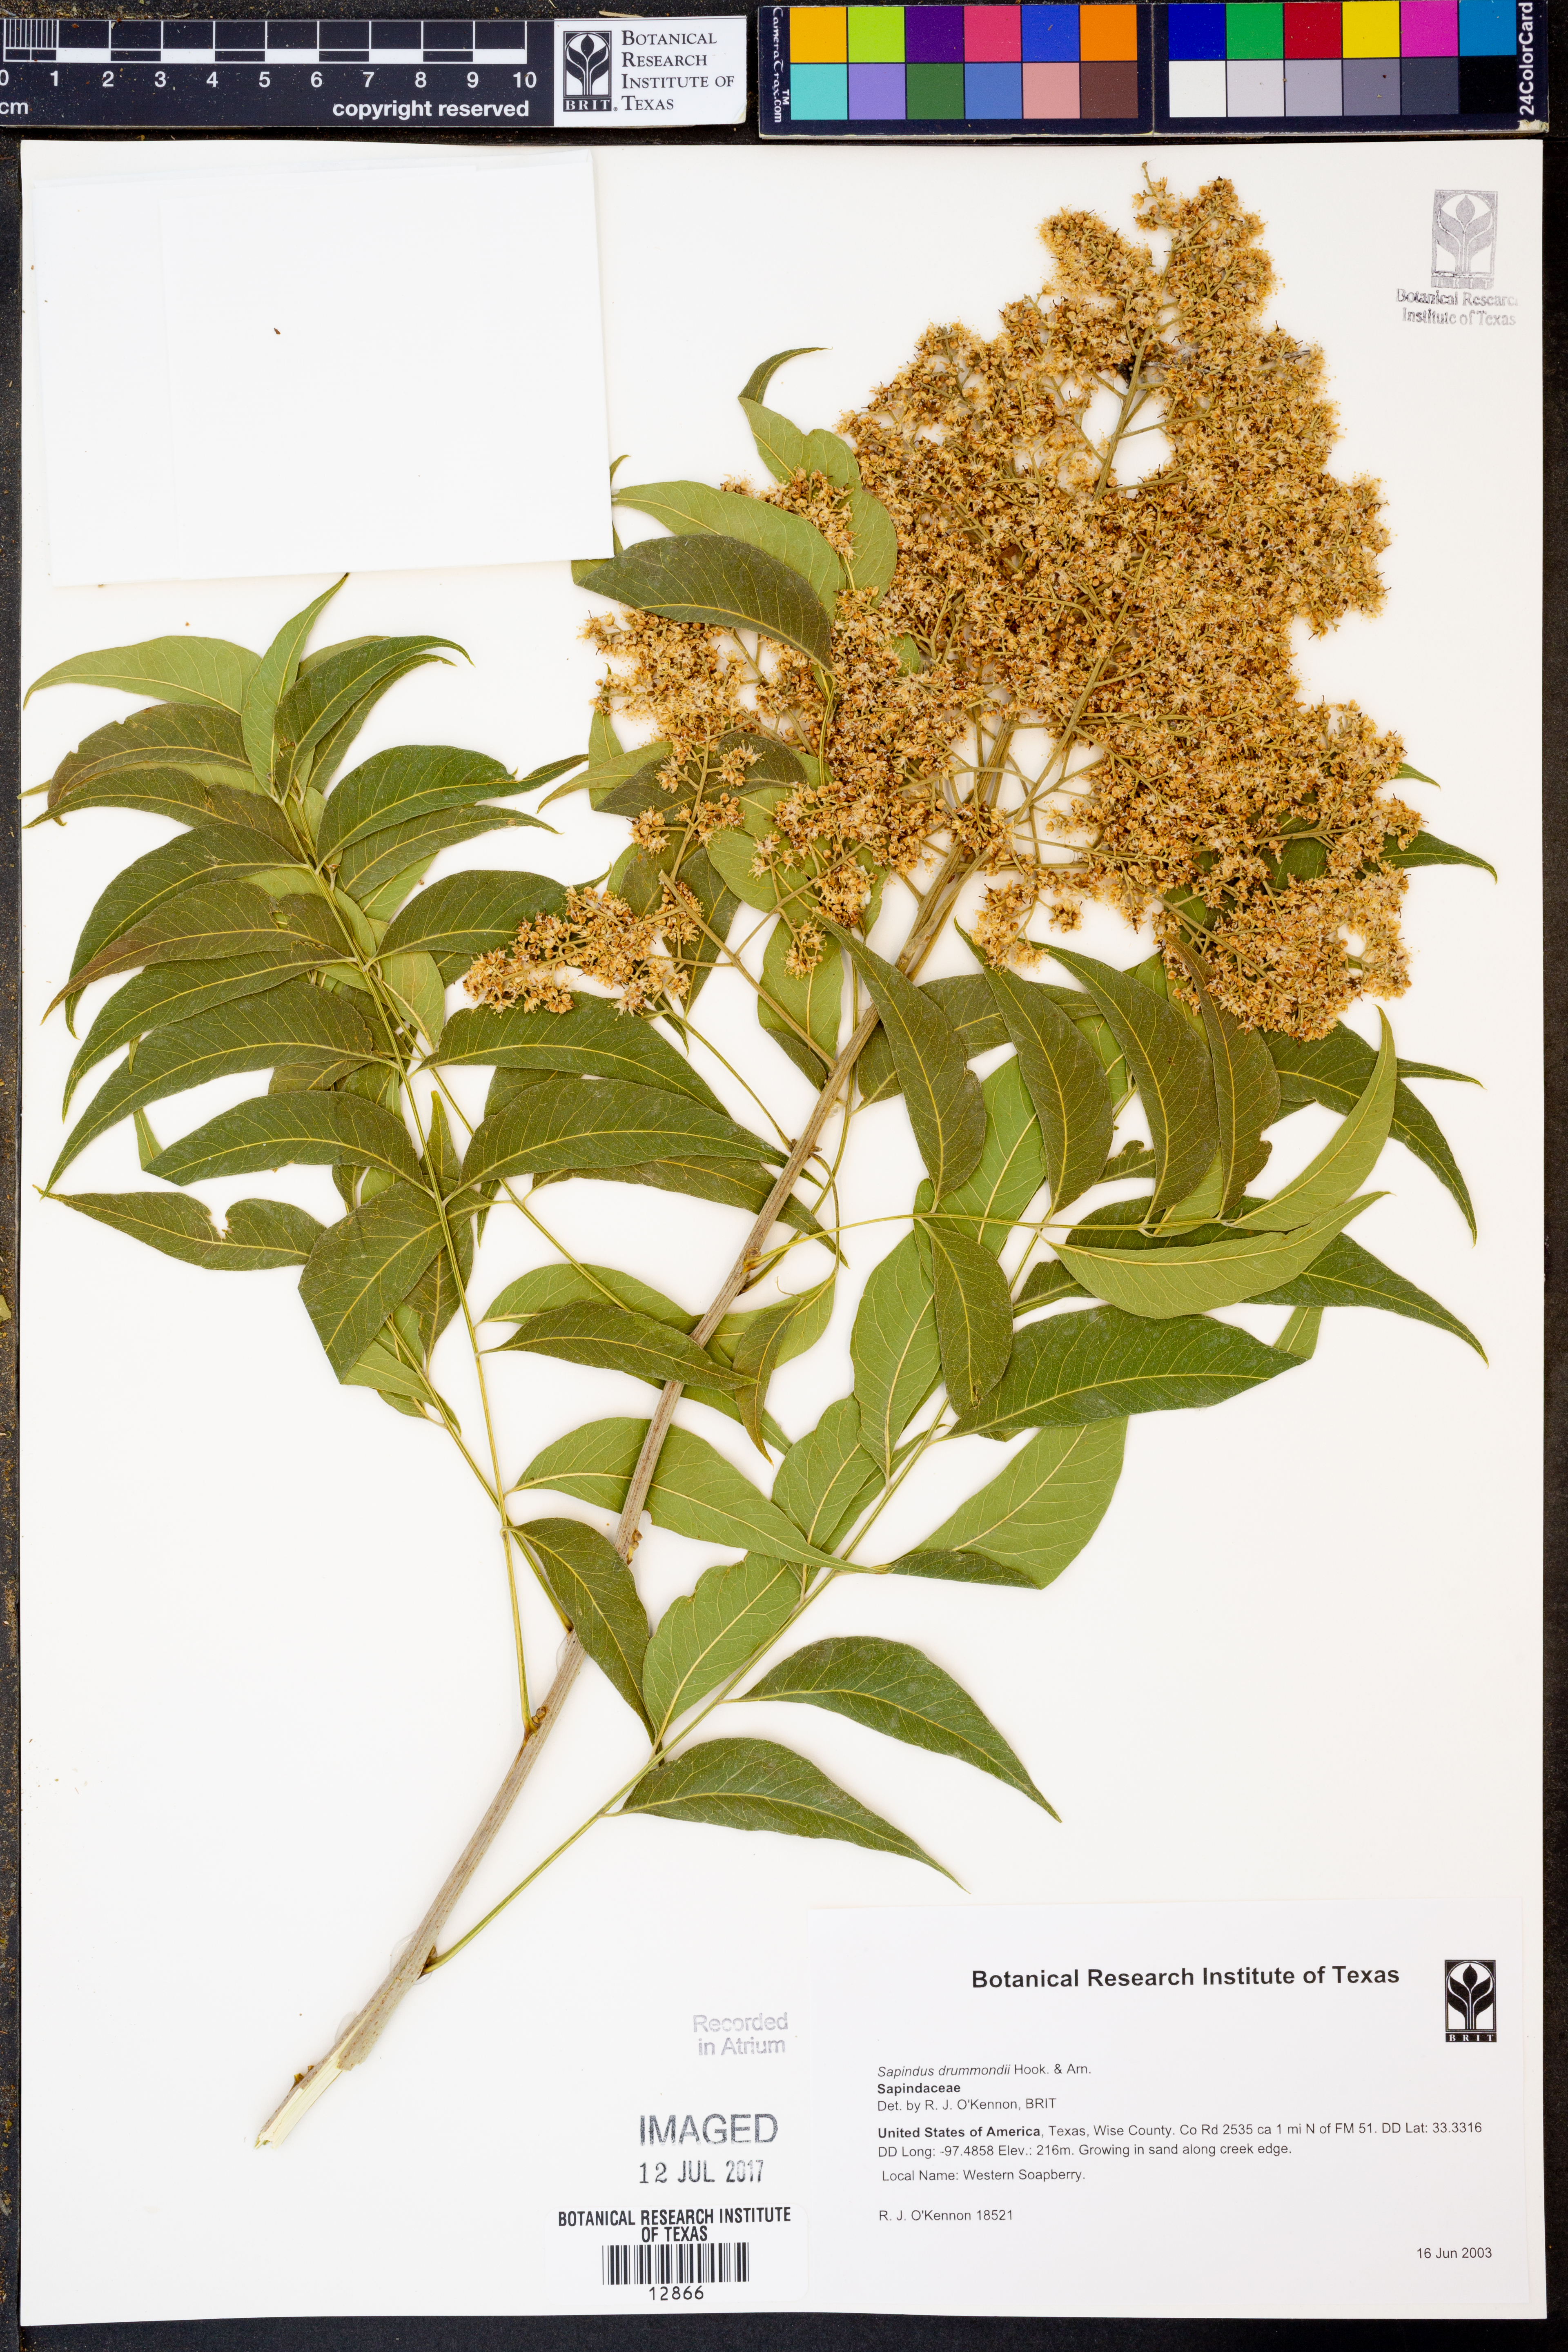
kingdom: Plantae
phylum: Tracheophyta
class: Magnoliopsida
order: Sapindales
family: Sapindaceae
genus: Sapindus
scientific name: Sapindus drummondii
